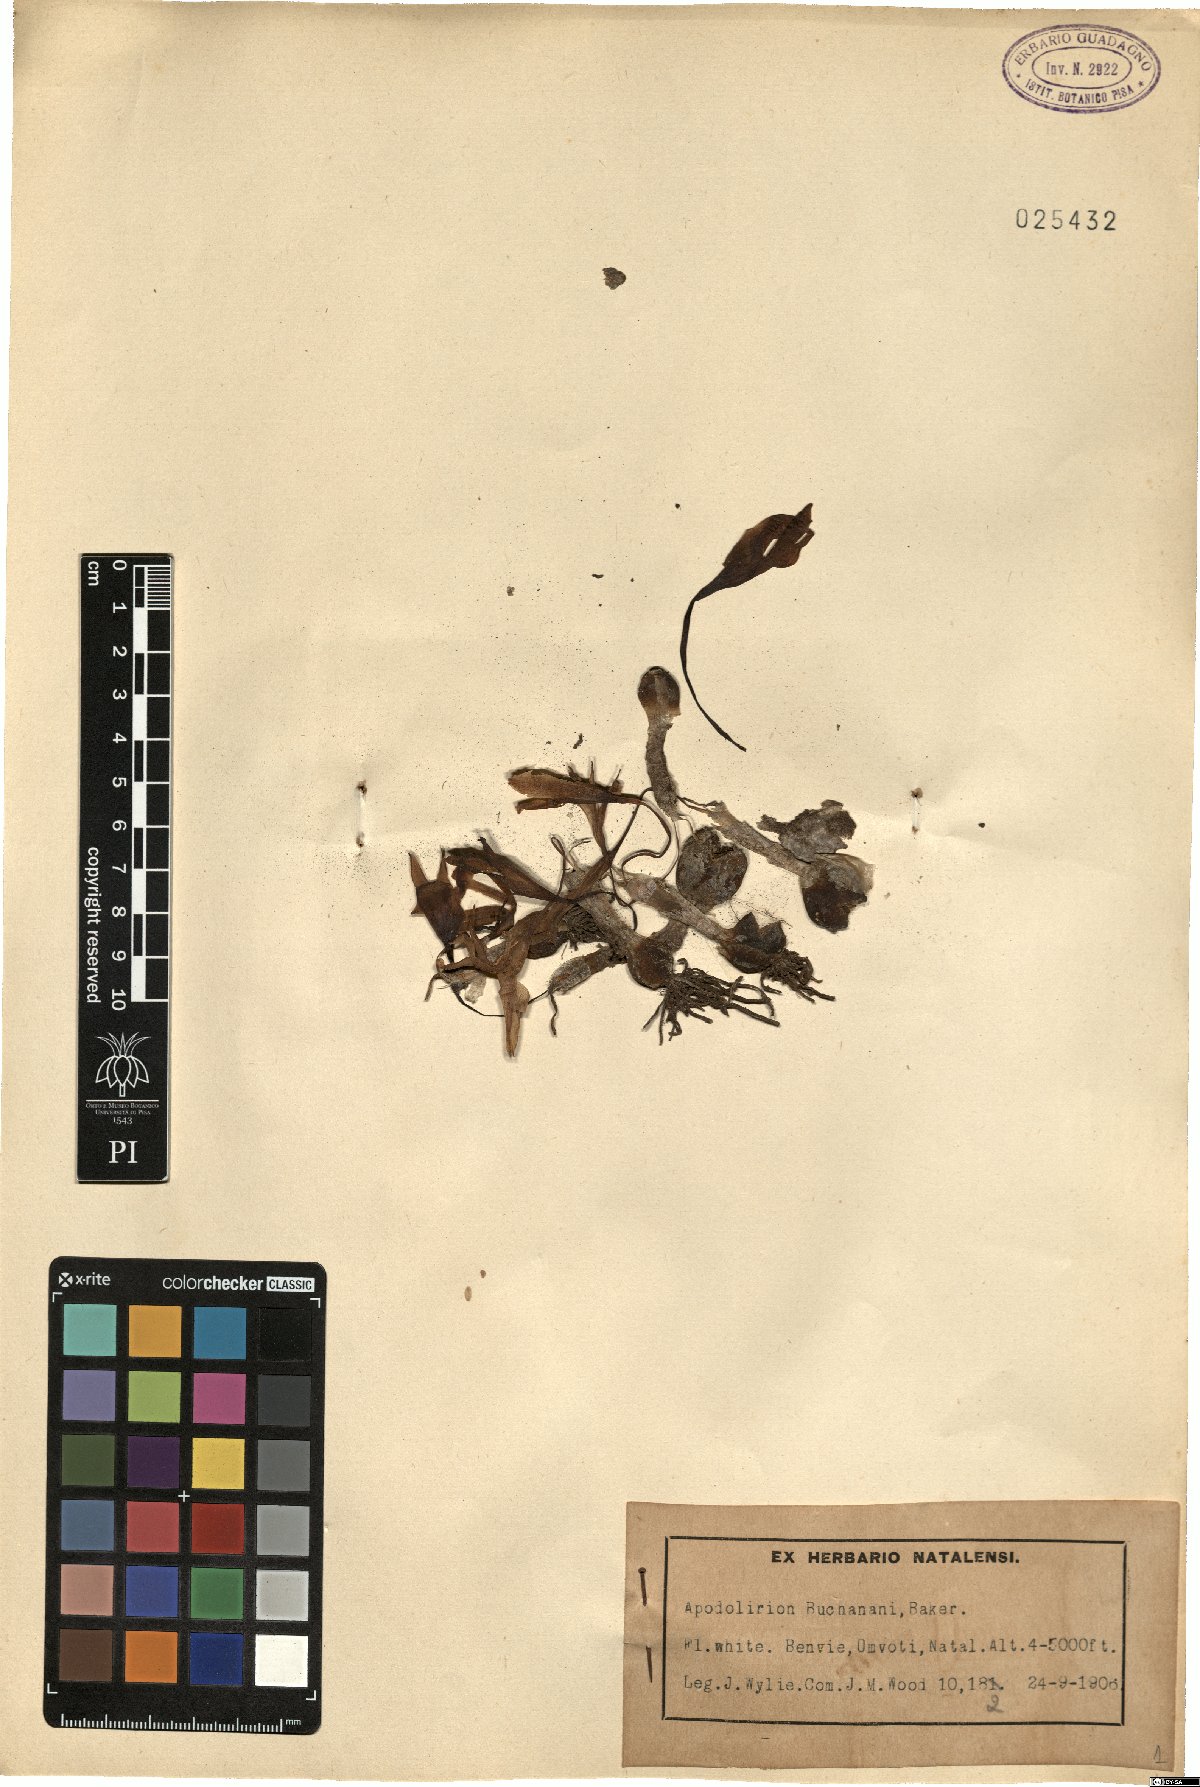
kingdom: Plantae
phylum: Tracheophyta
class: Liliopsida
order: Asparagales
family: Amaryllidaceae
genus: Apodolirion
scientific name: Apodolirion buchananii
